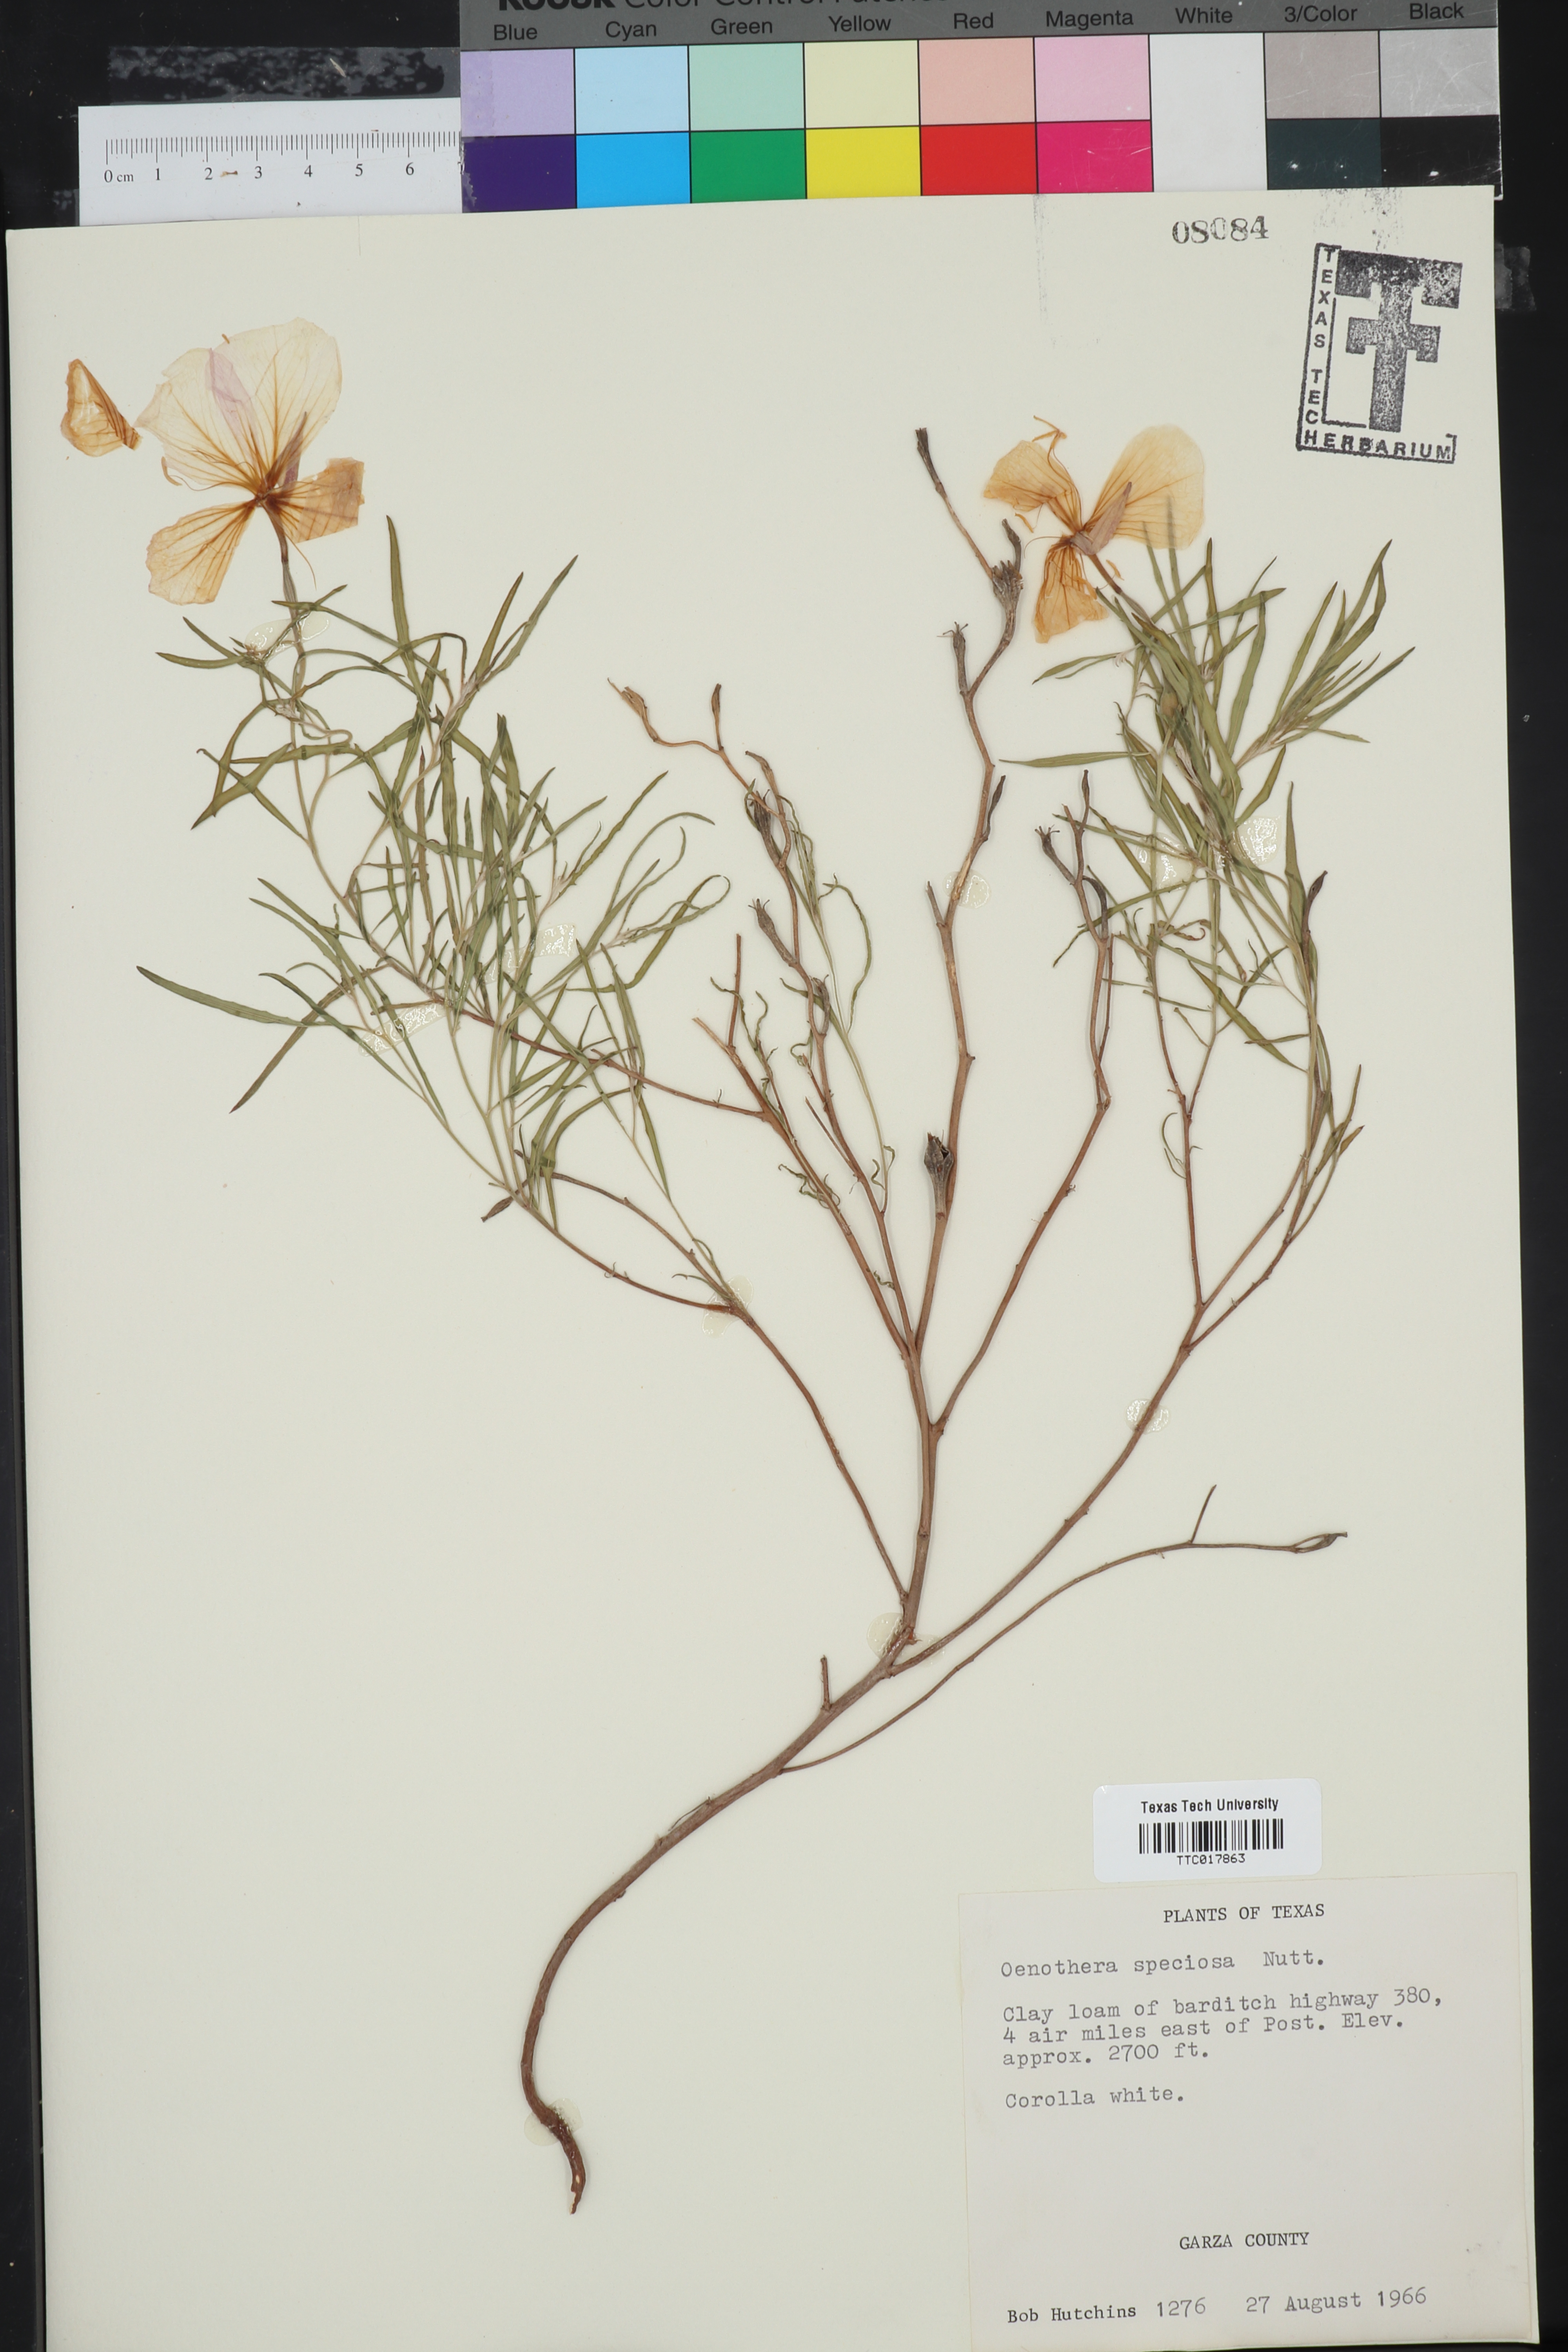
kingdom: Plantae
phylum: Tracheophyta
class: Magnoliopsida
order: Myrtales
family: Onagraceae
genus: Oenothera
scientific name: Oenothera speciosa
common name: White evening-primrose
